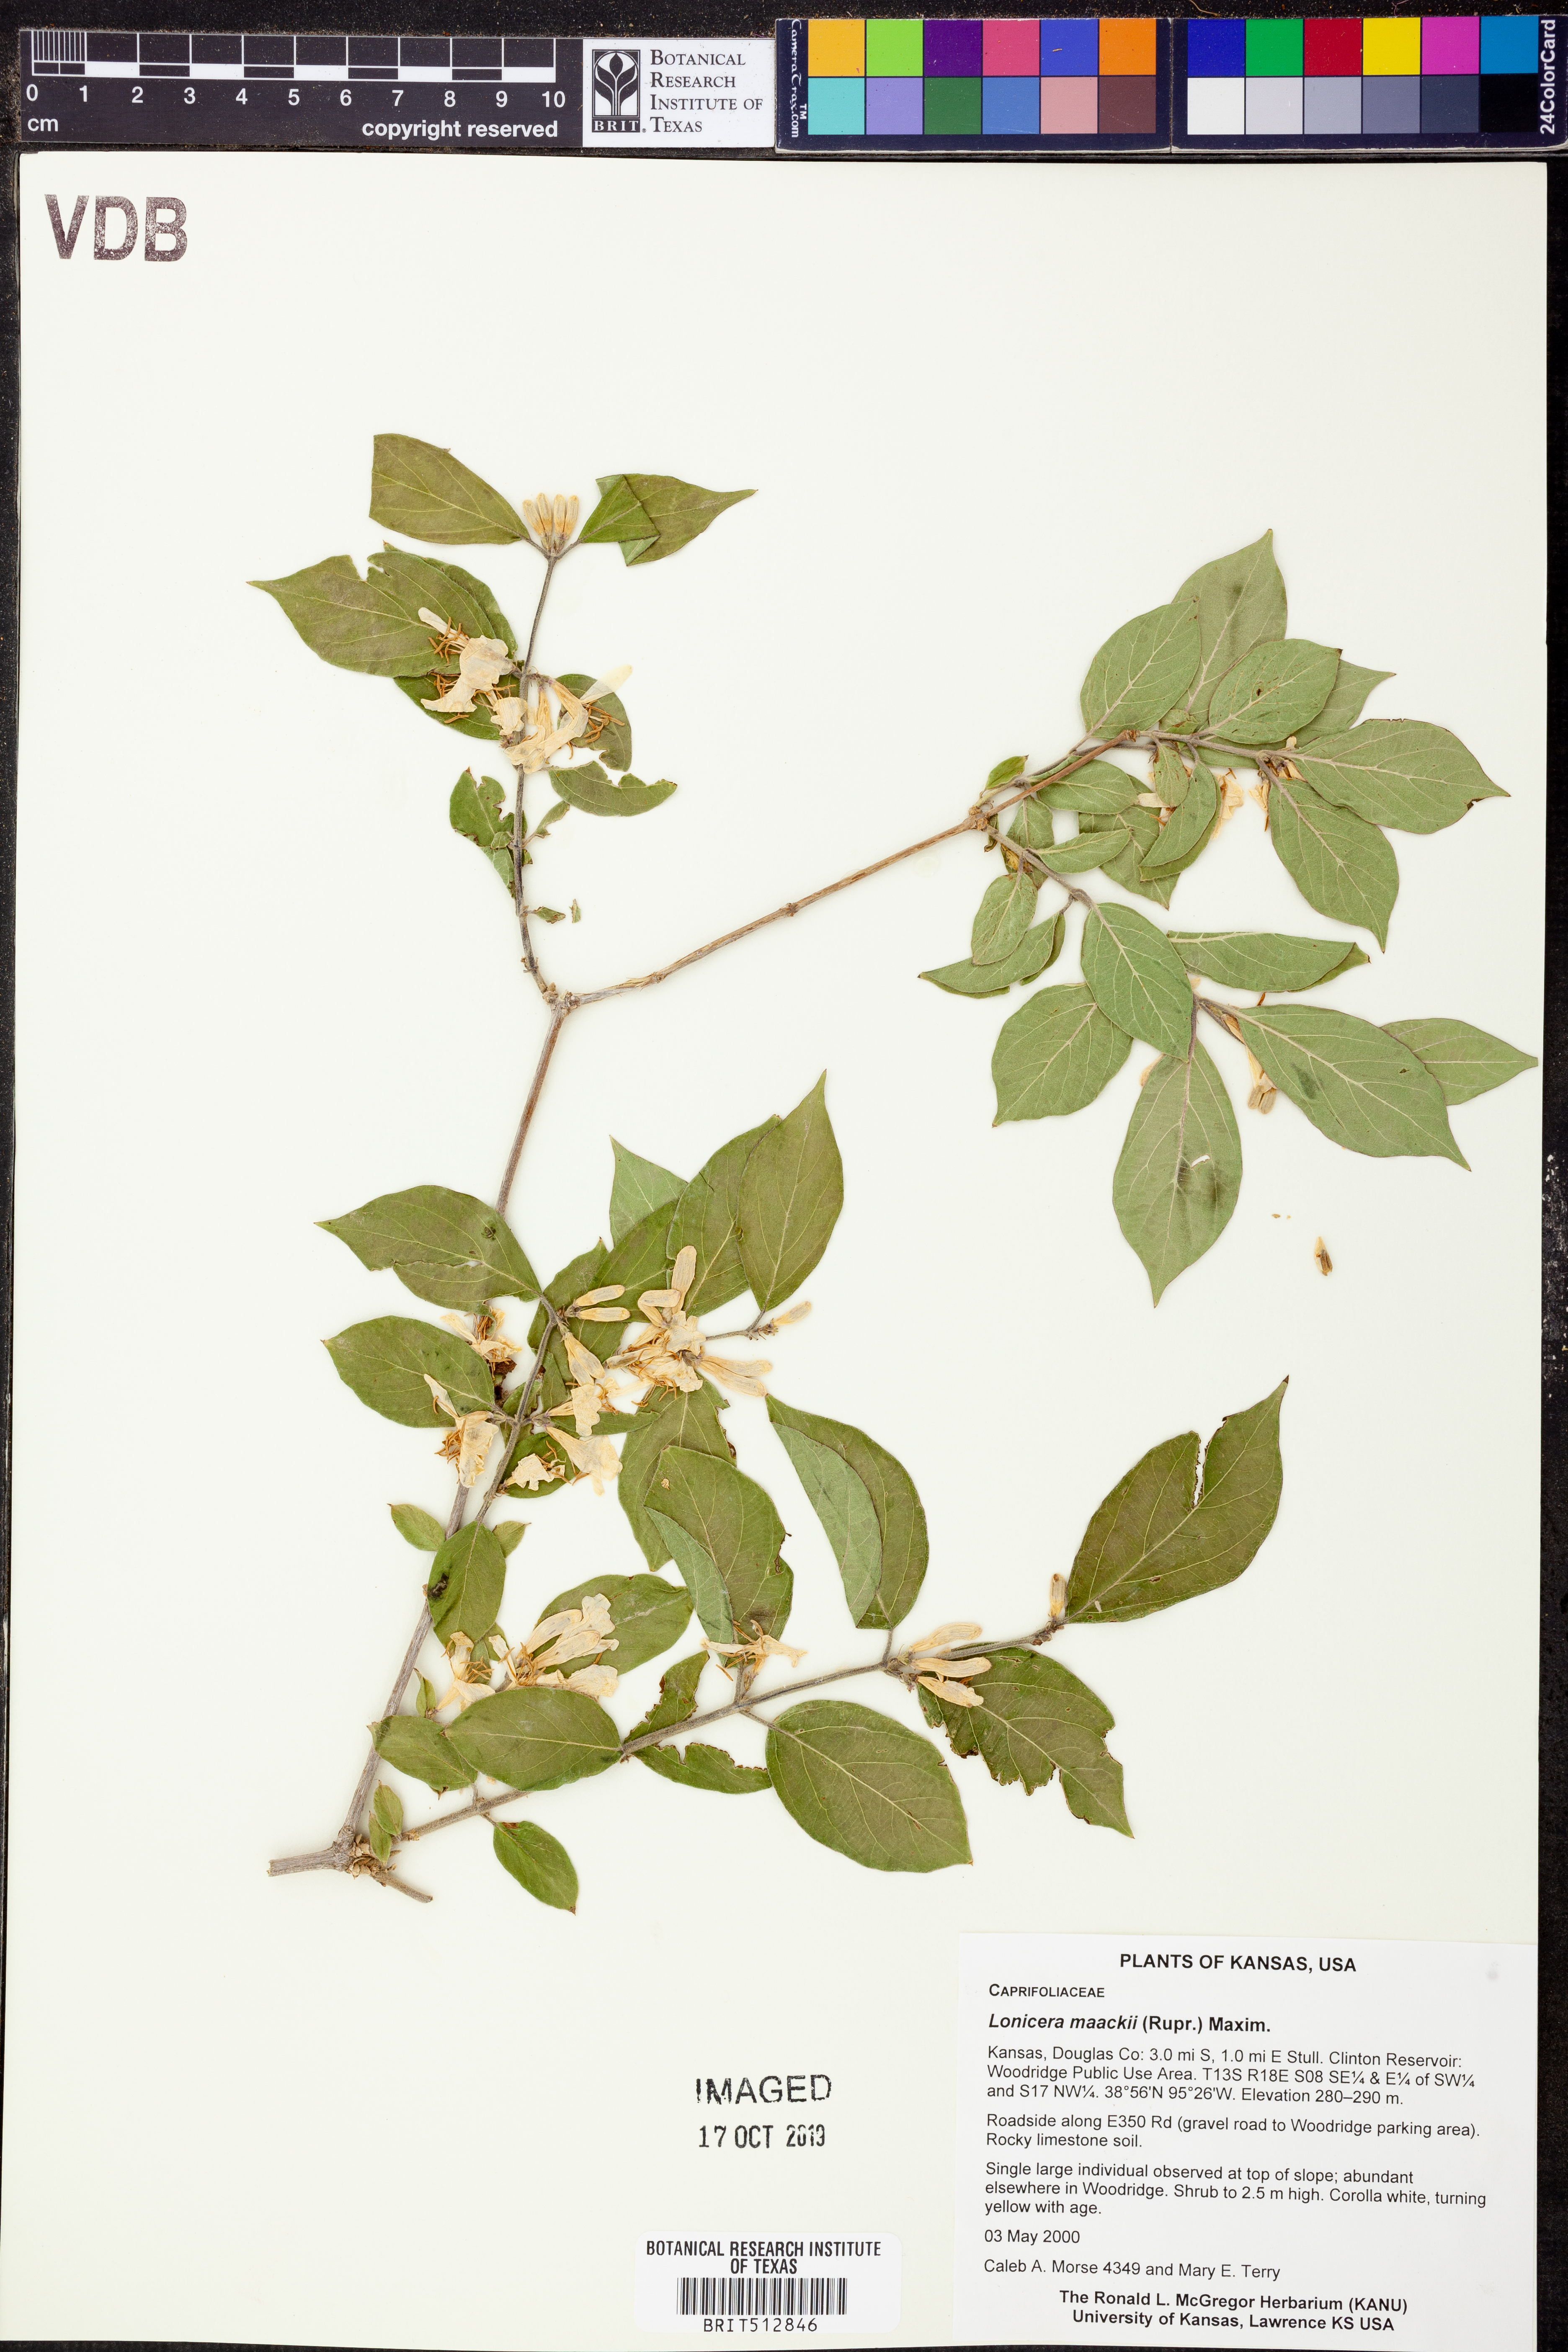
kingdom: Plantae
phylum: Tracheophyta
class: Magnoliopsida
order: Dipsacales
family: Caprifoliaceae
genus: Lonicera
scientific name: Lonicera maackii
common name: Amur honeysuckle
